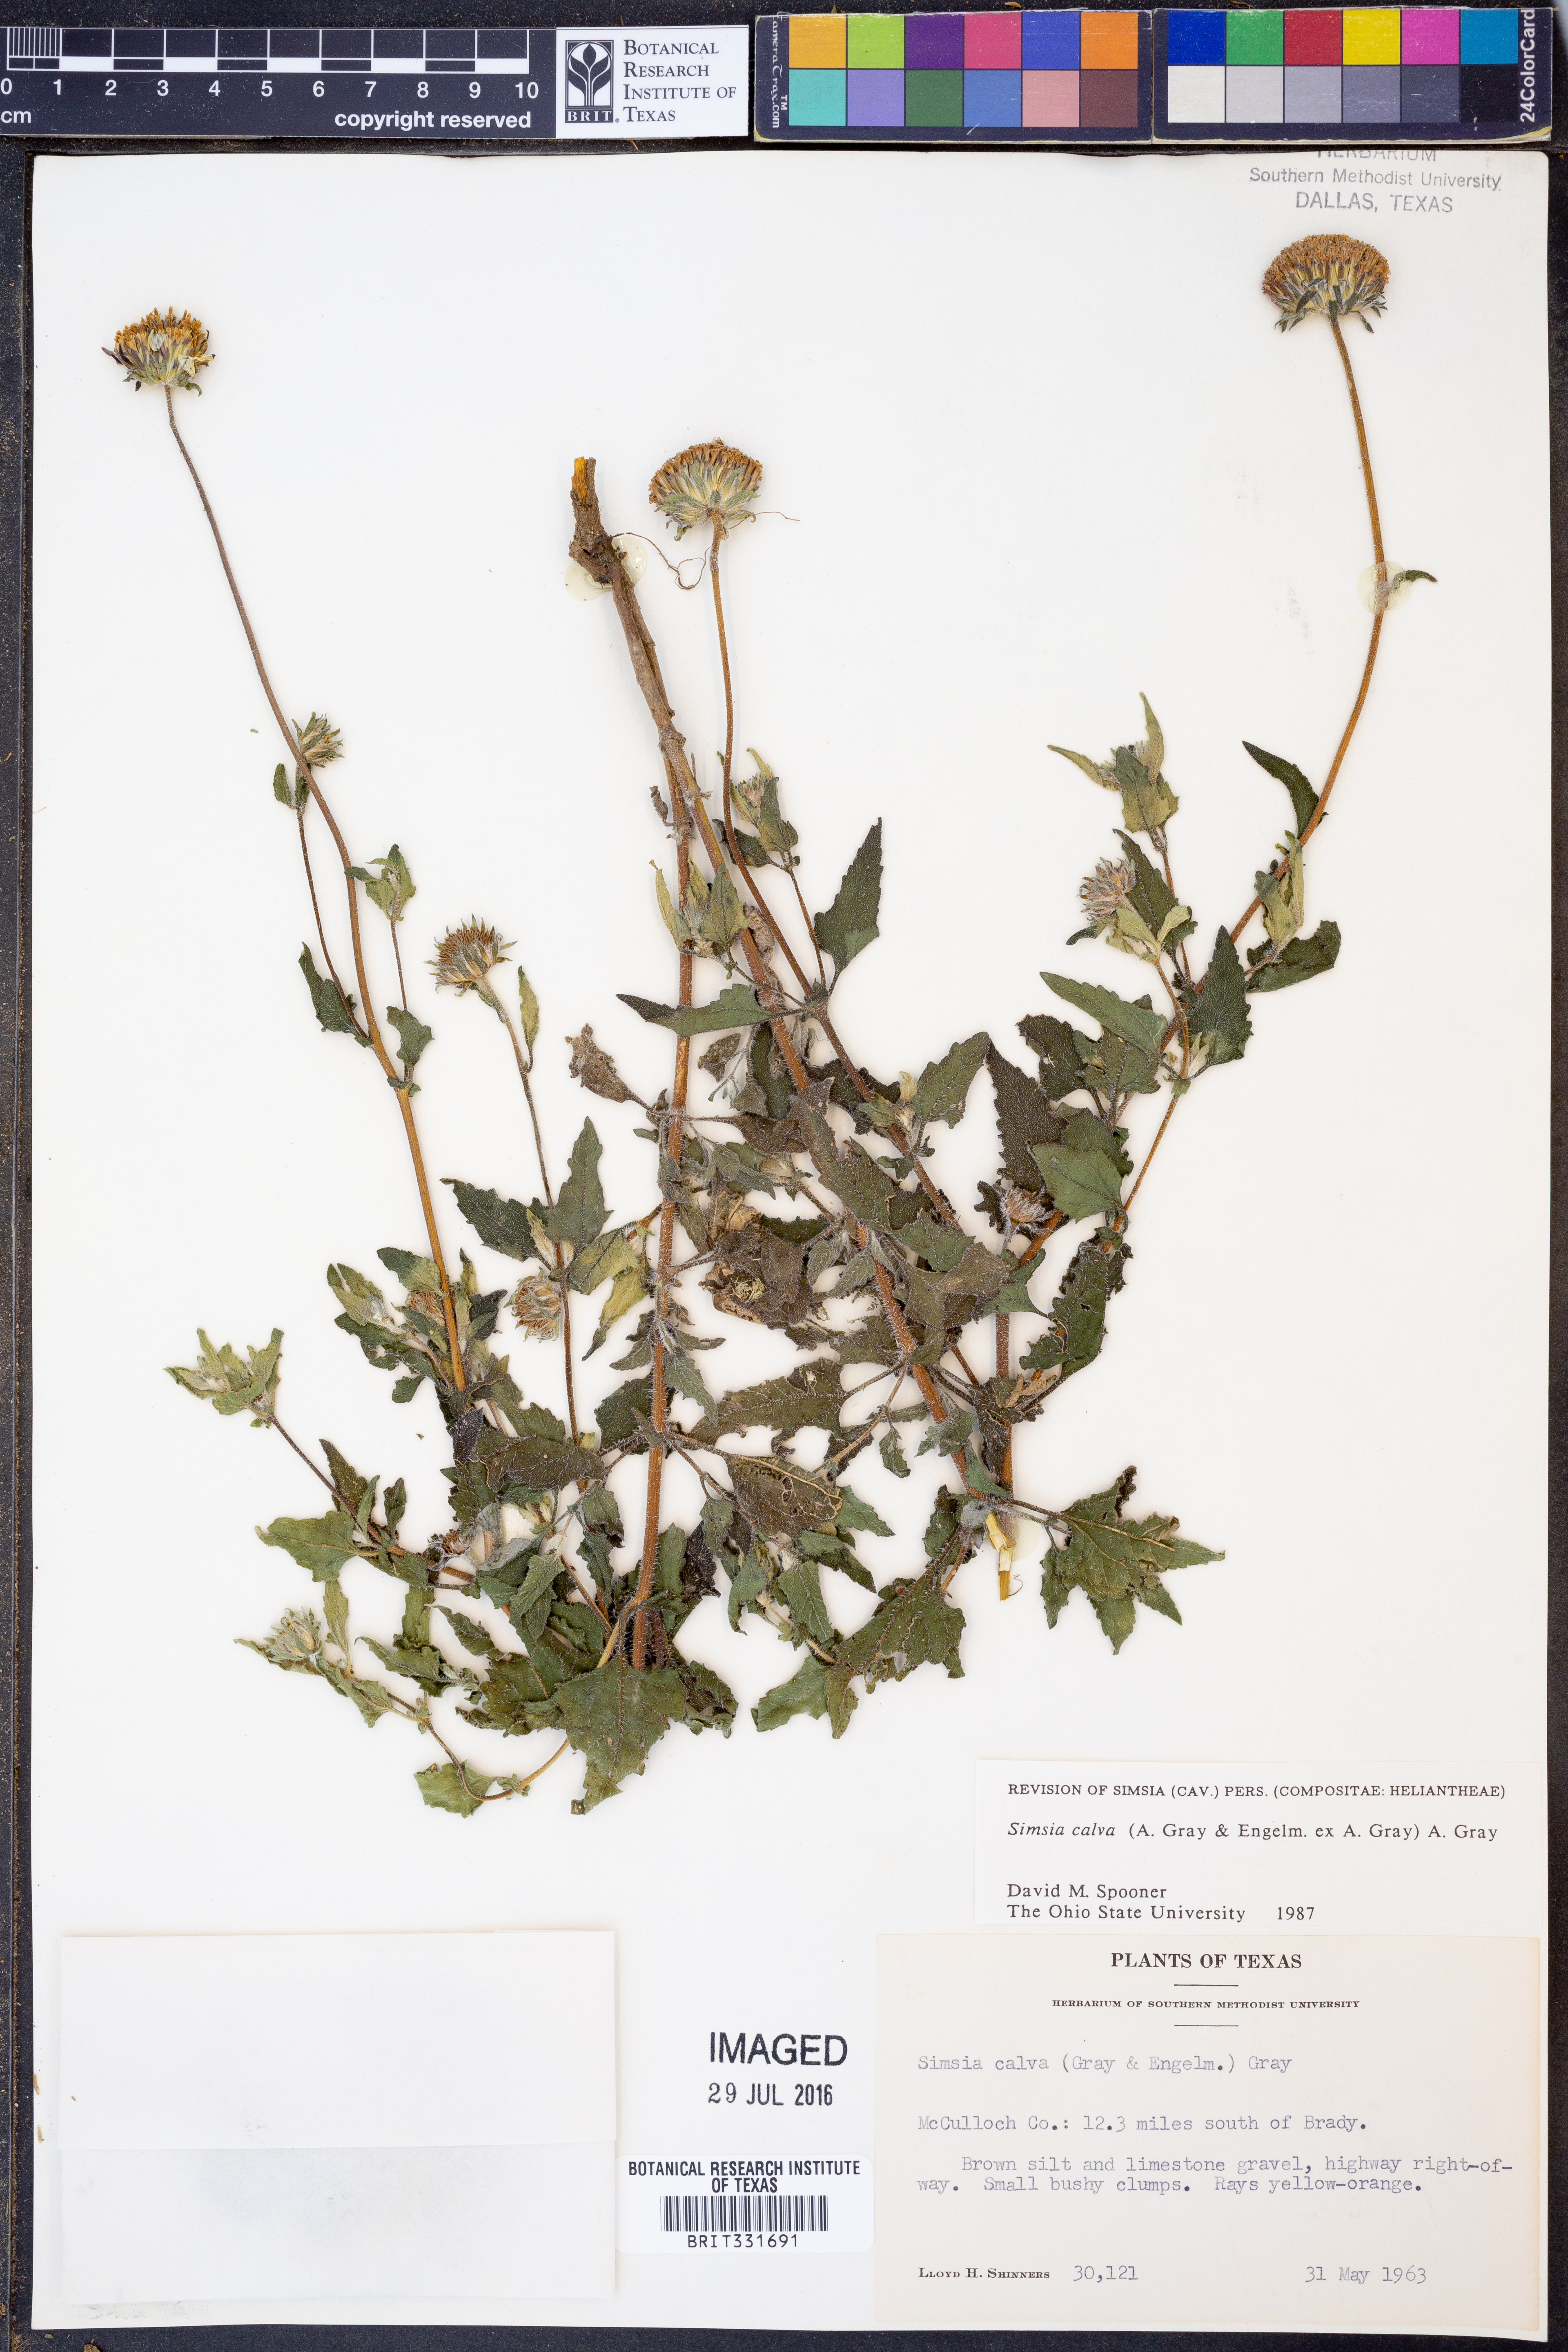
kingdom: Plantae
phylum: Tracheophyta
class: Magnoliopsida
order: Asterales
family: Asteraceae
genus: Simsia
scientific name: Simsia calva
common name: Awnless bush-sunflower
